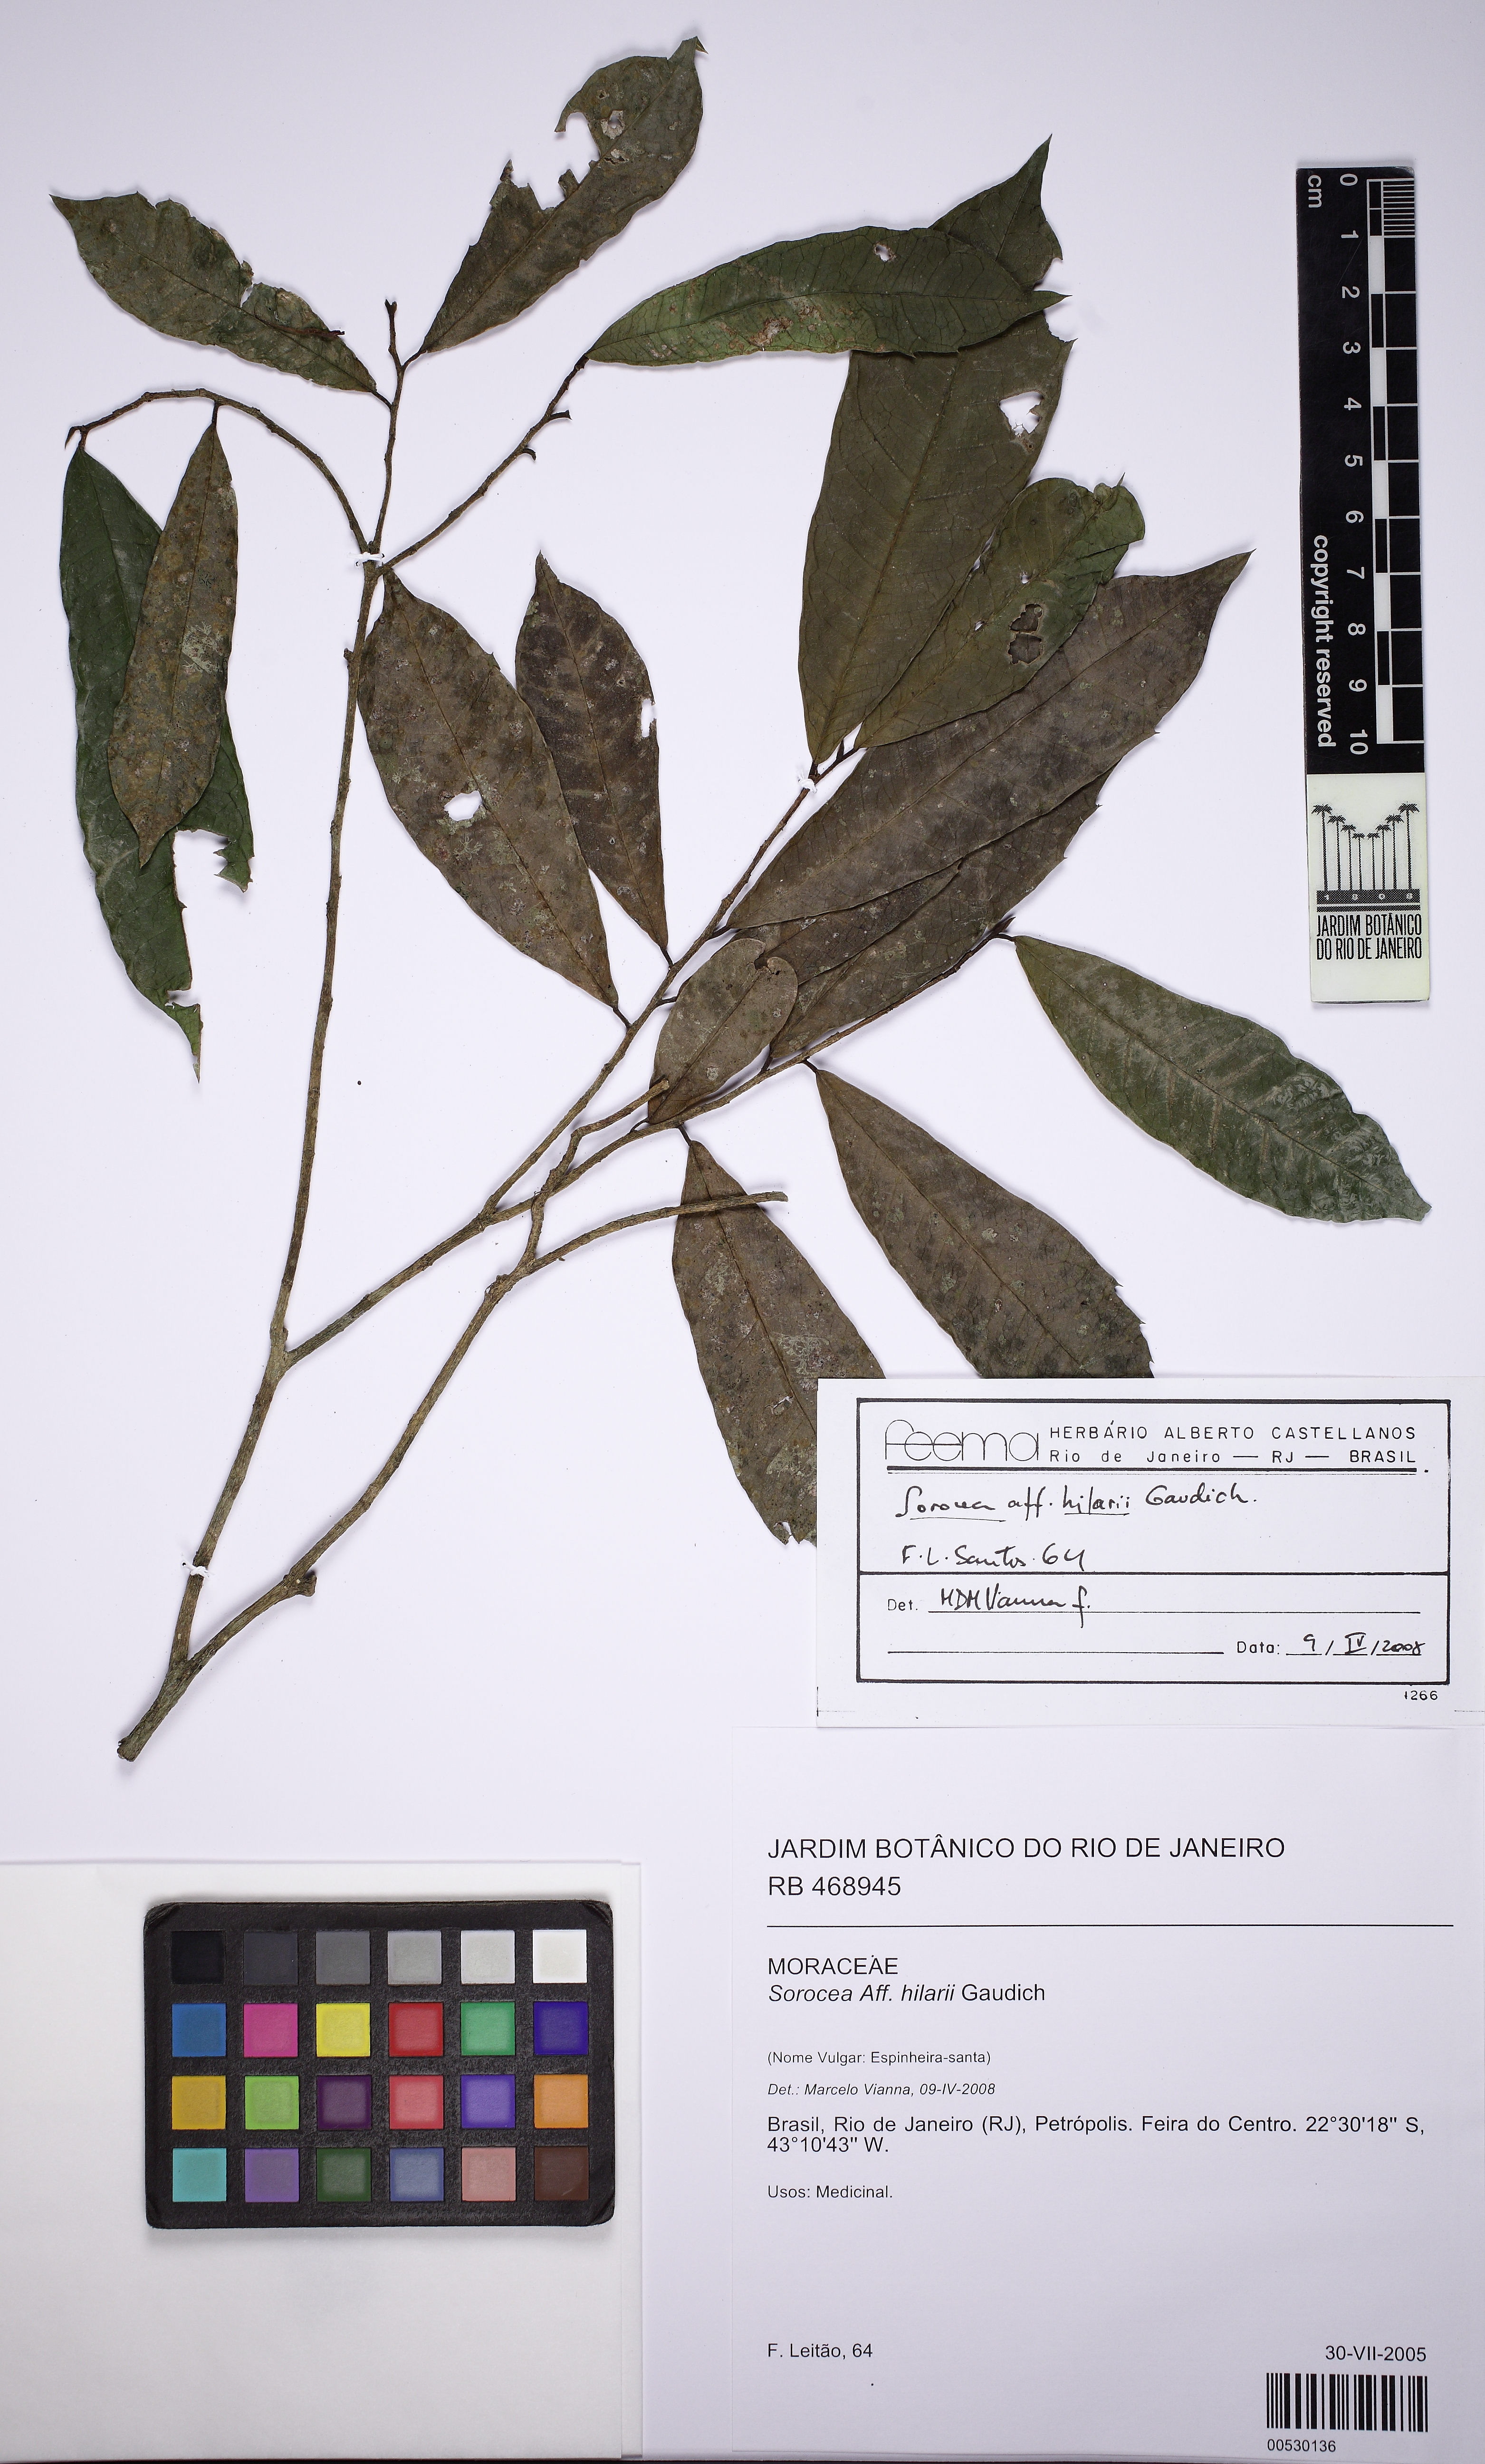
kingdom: Plantae
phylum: Tracheophyta
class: Magnoliopsida
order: Rosales
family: Moraceae
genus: Sorocea
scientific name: Sorocea hilarii
